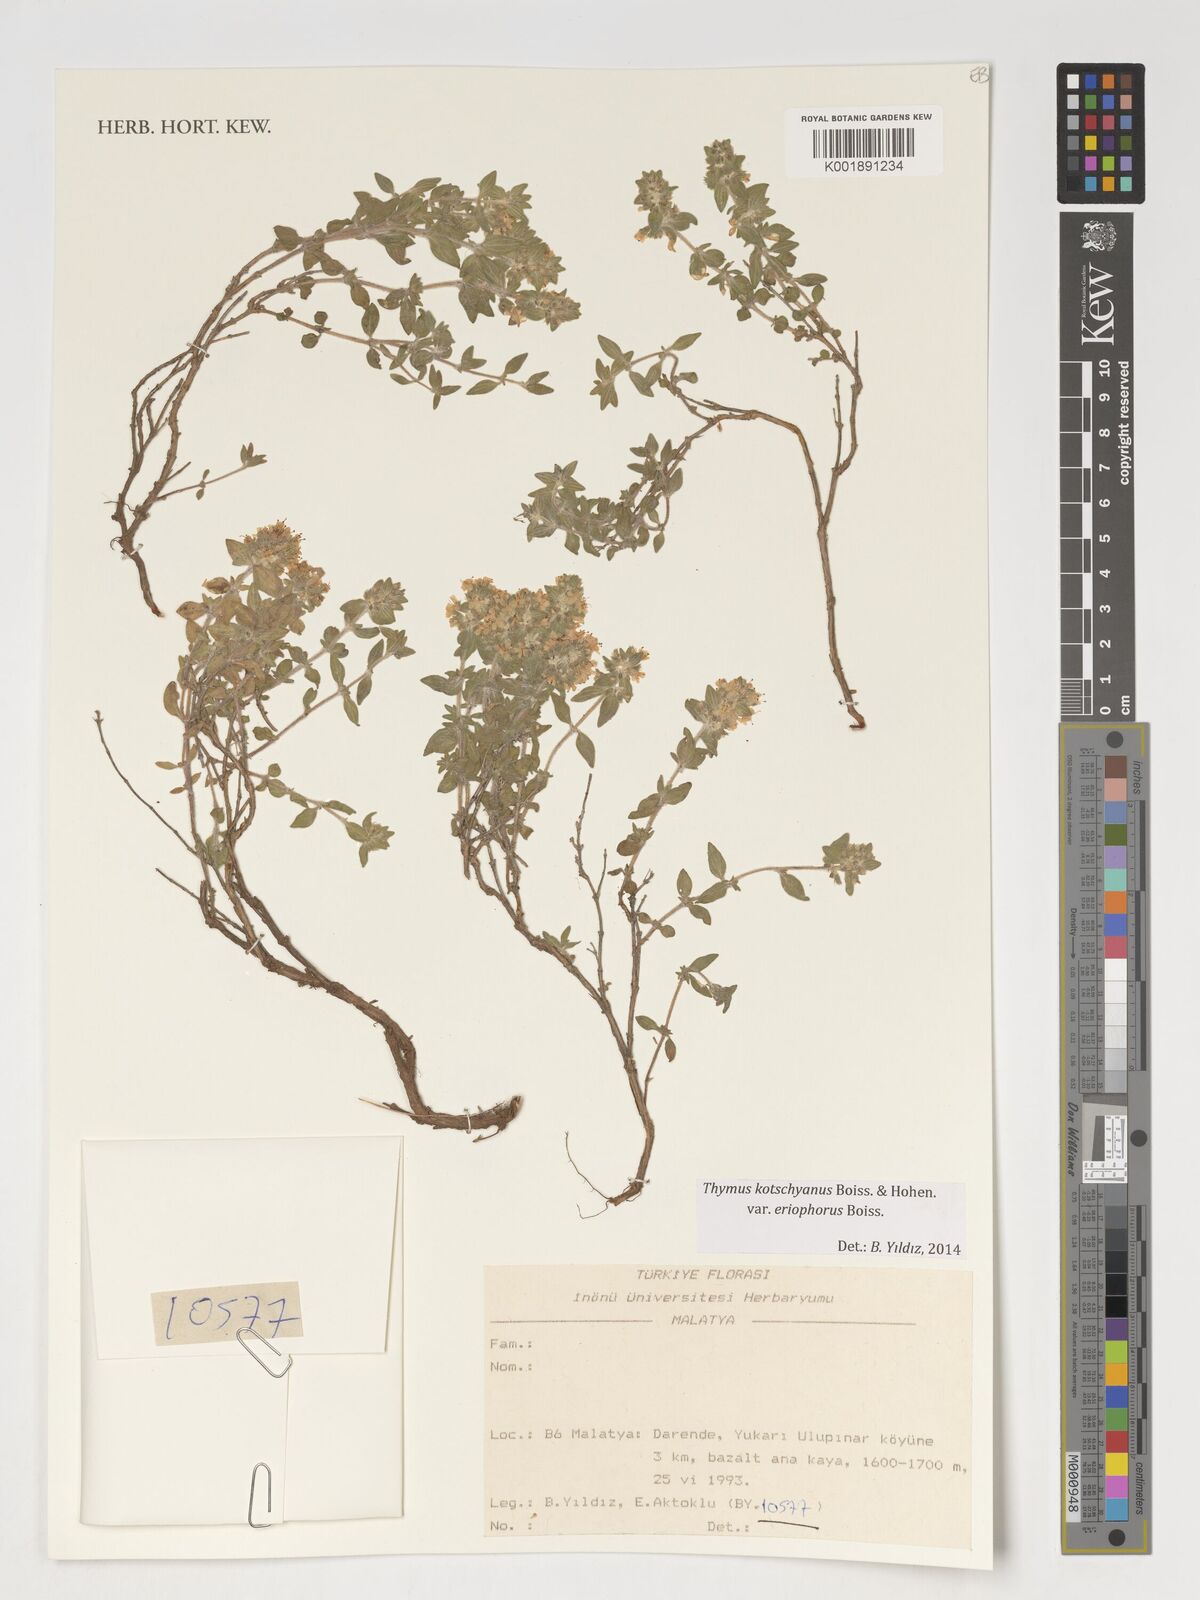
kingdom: Plantae
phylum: Tracheophyta
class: Magnoliopsida
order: Lamiales
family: Lamiaceae
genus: Thymus
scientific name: Thymus
